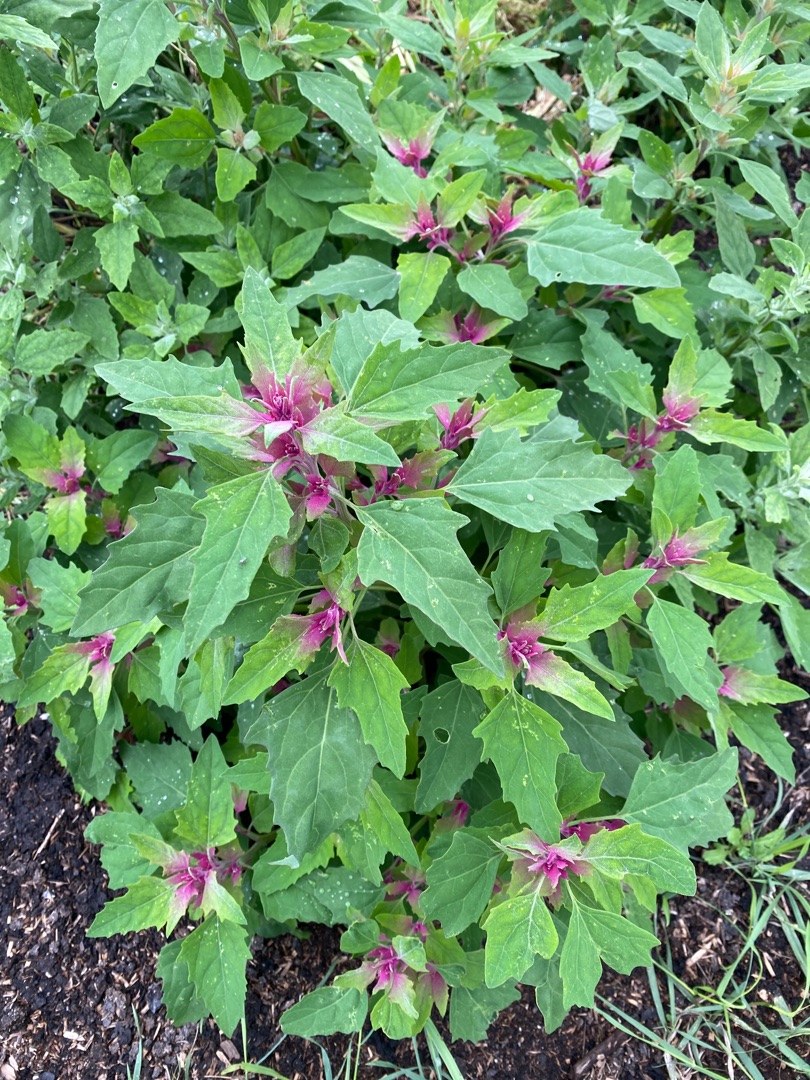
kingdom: Plantae
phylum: Tracheophyta
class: Magnoliopsida
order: Caryophyllales
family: Amaranthaceae
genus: Chenopodium
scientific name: Chenopodium giganteum
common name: Kæmpe-gåsefod
